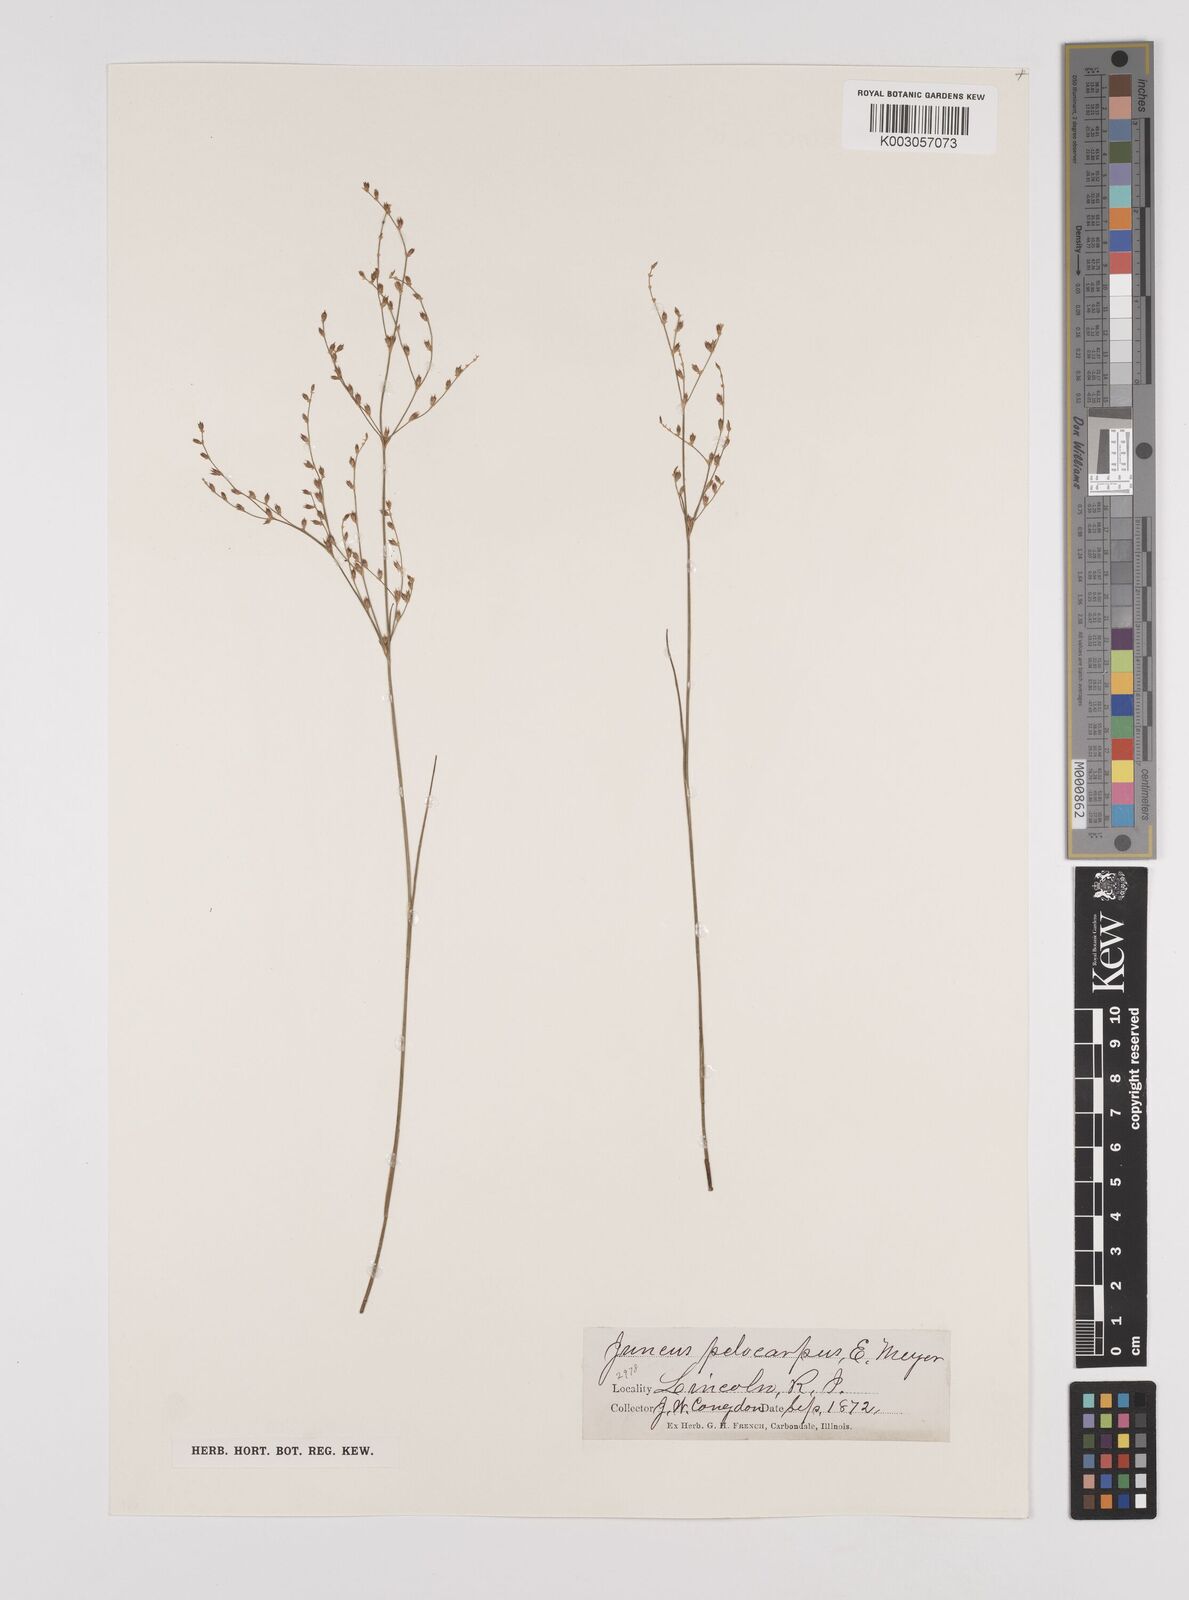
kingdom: Plantae
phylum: Tracheophyta
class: Liliopsida
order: Poales
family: Juncaceae
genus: Juncus
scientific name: Juncus pelocarpus
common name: Brown-fruited rush
